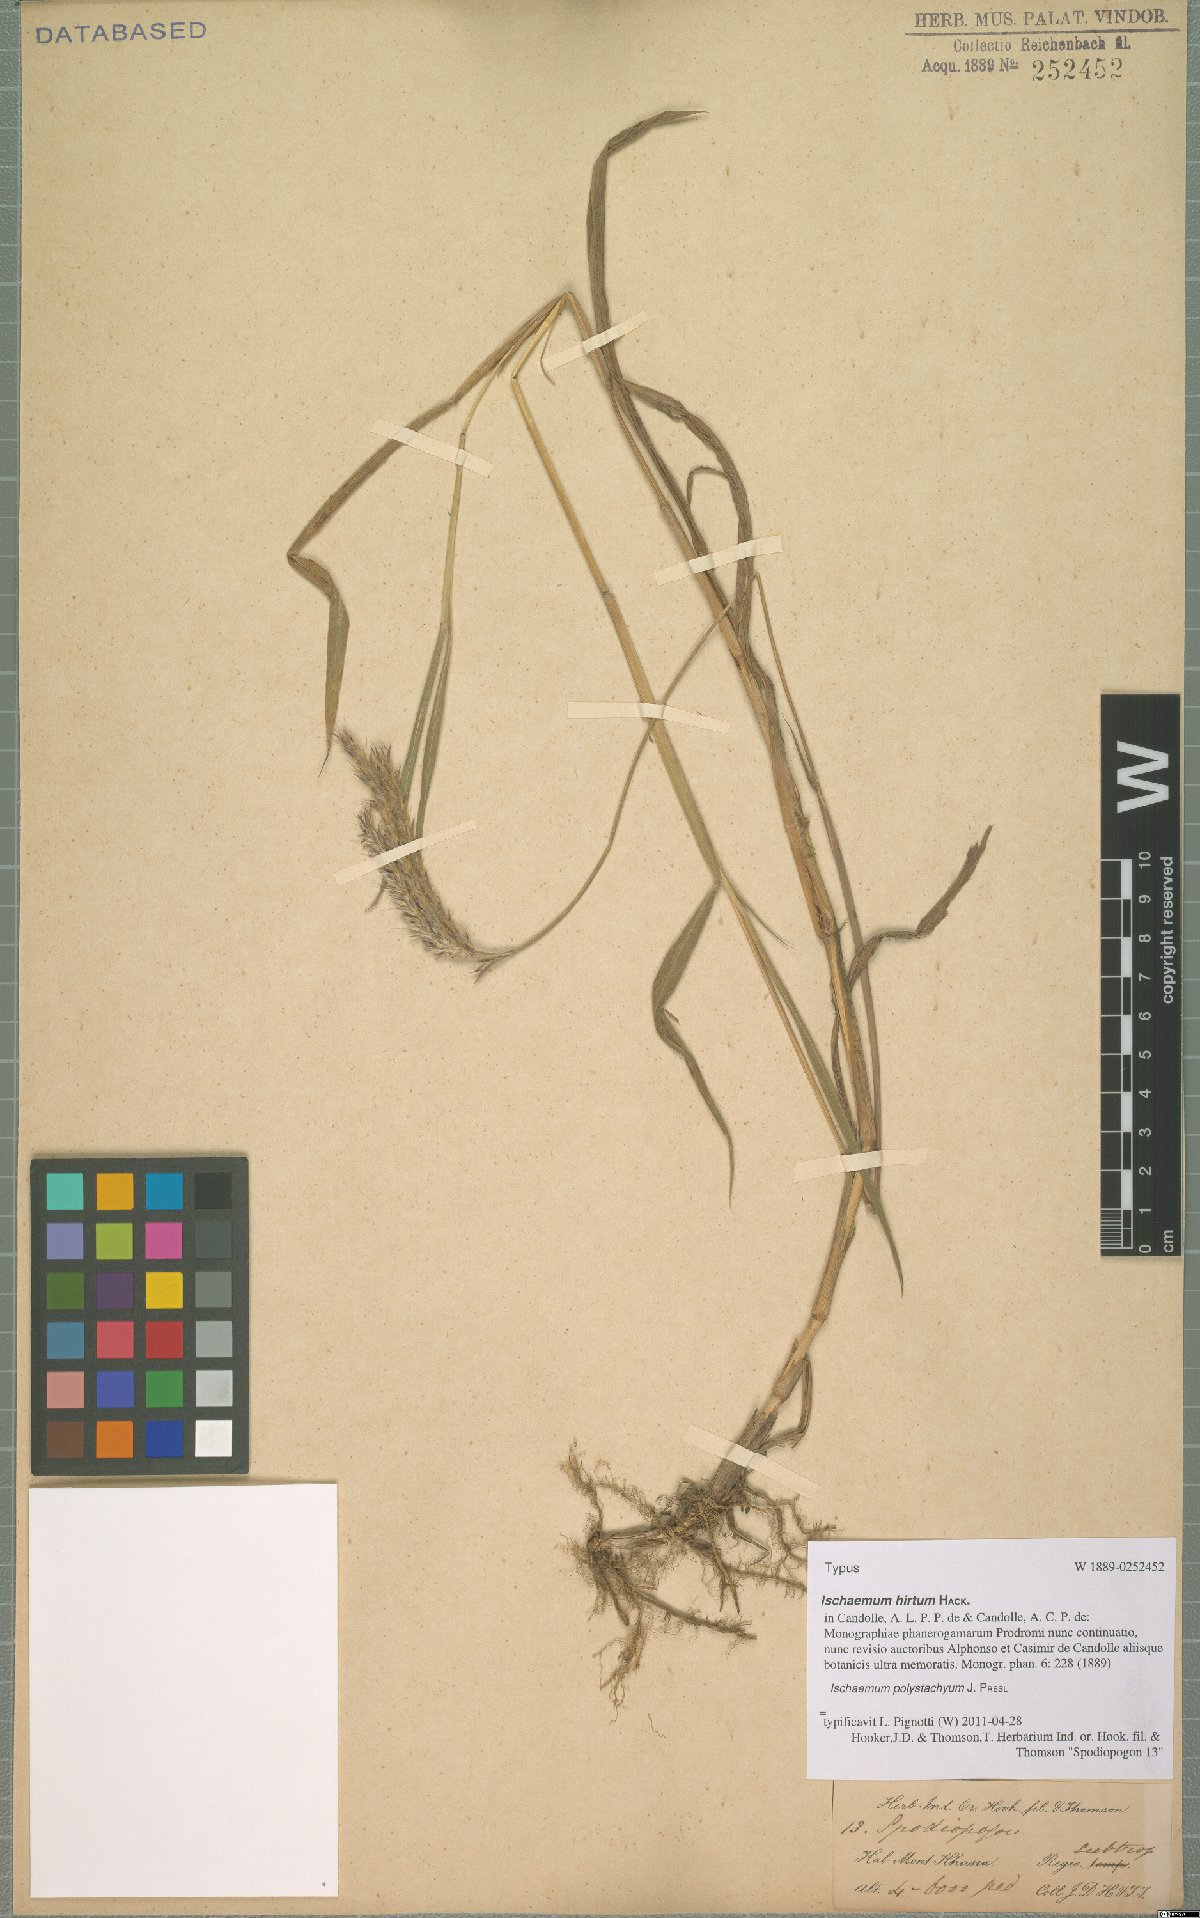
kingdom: Plantae
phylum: Tracheophyta
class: Liliopsida
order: Poales
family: Poaceae
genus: Ischaemum
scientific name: Ischaemum polystachyum
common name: Paddle grass
